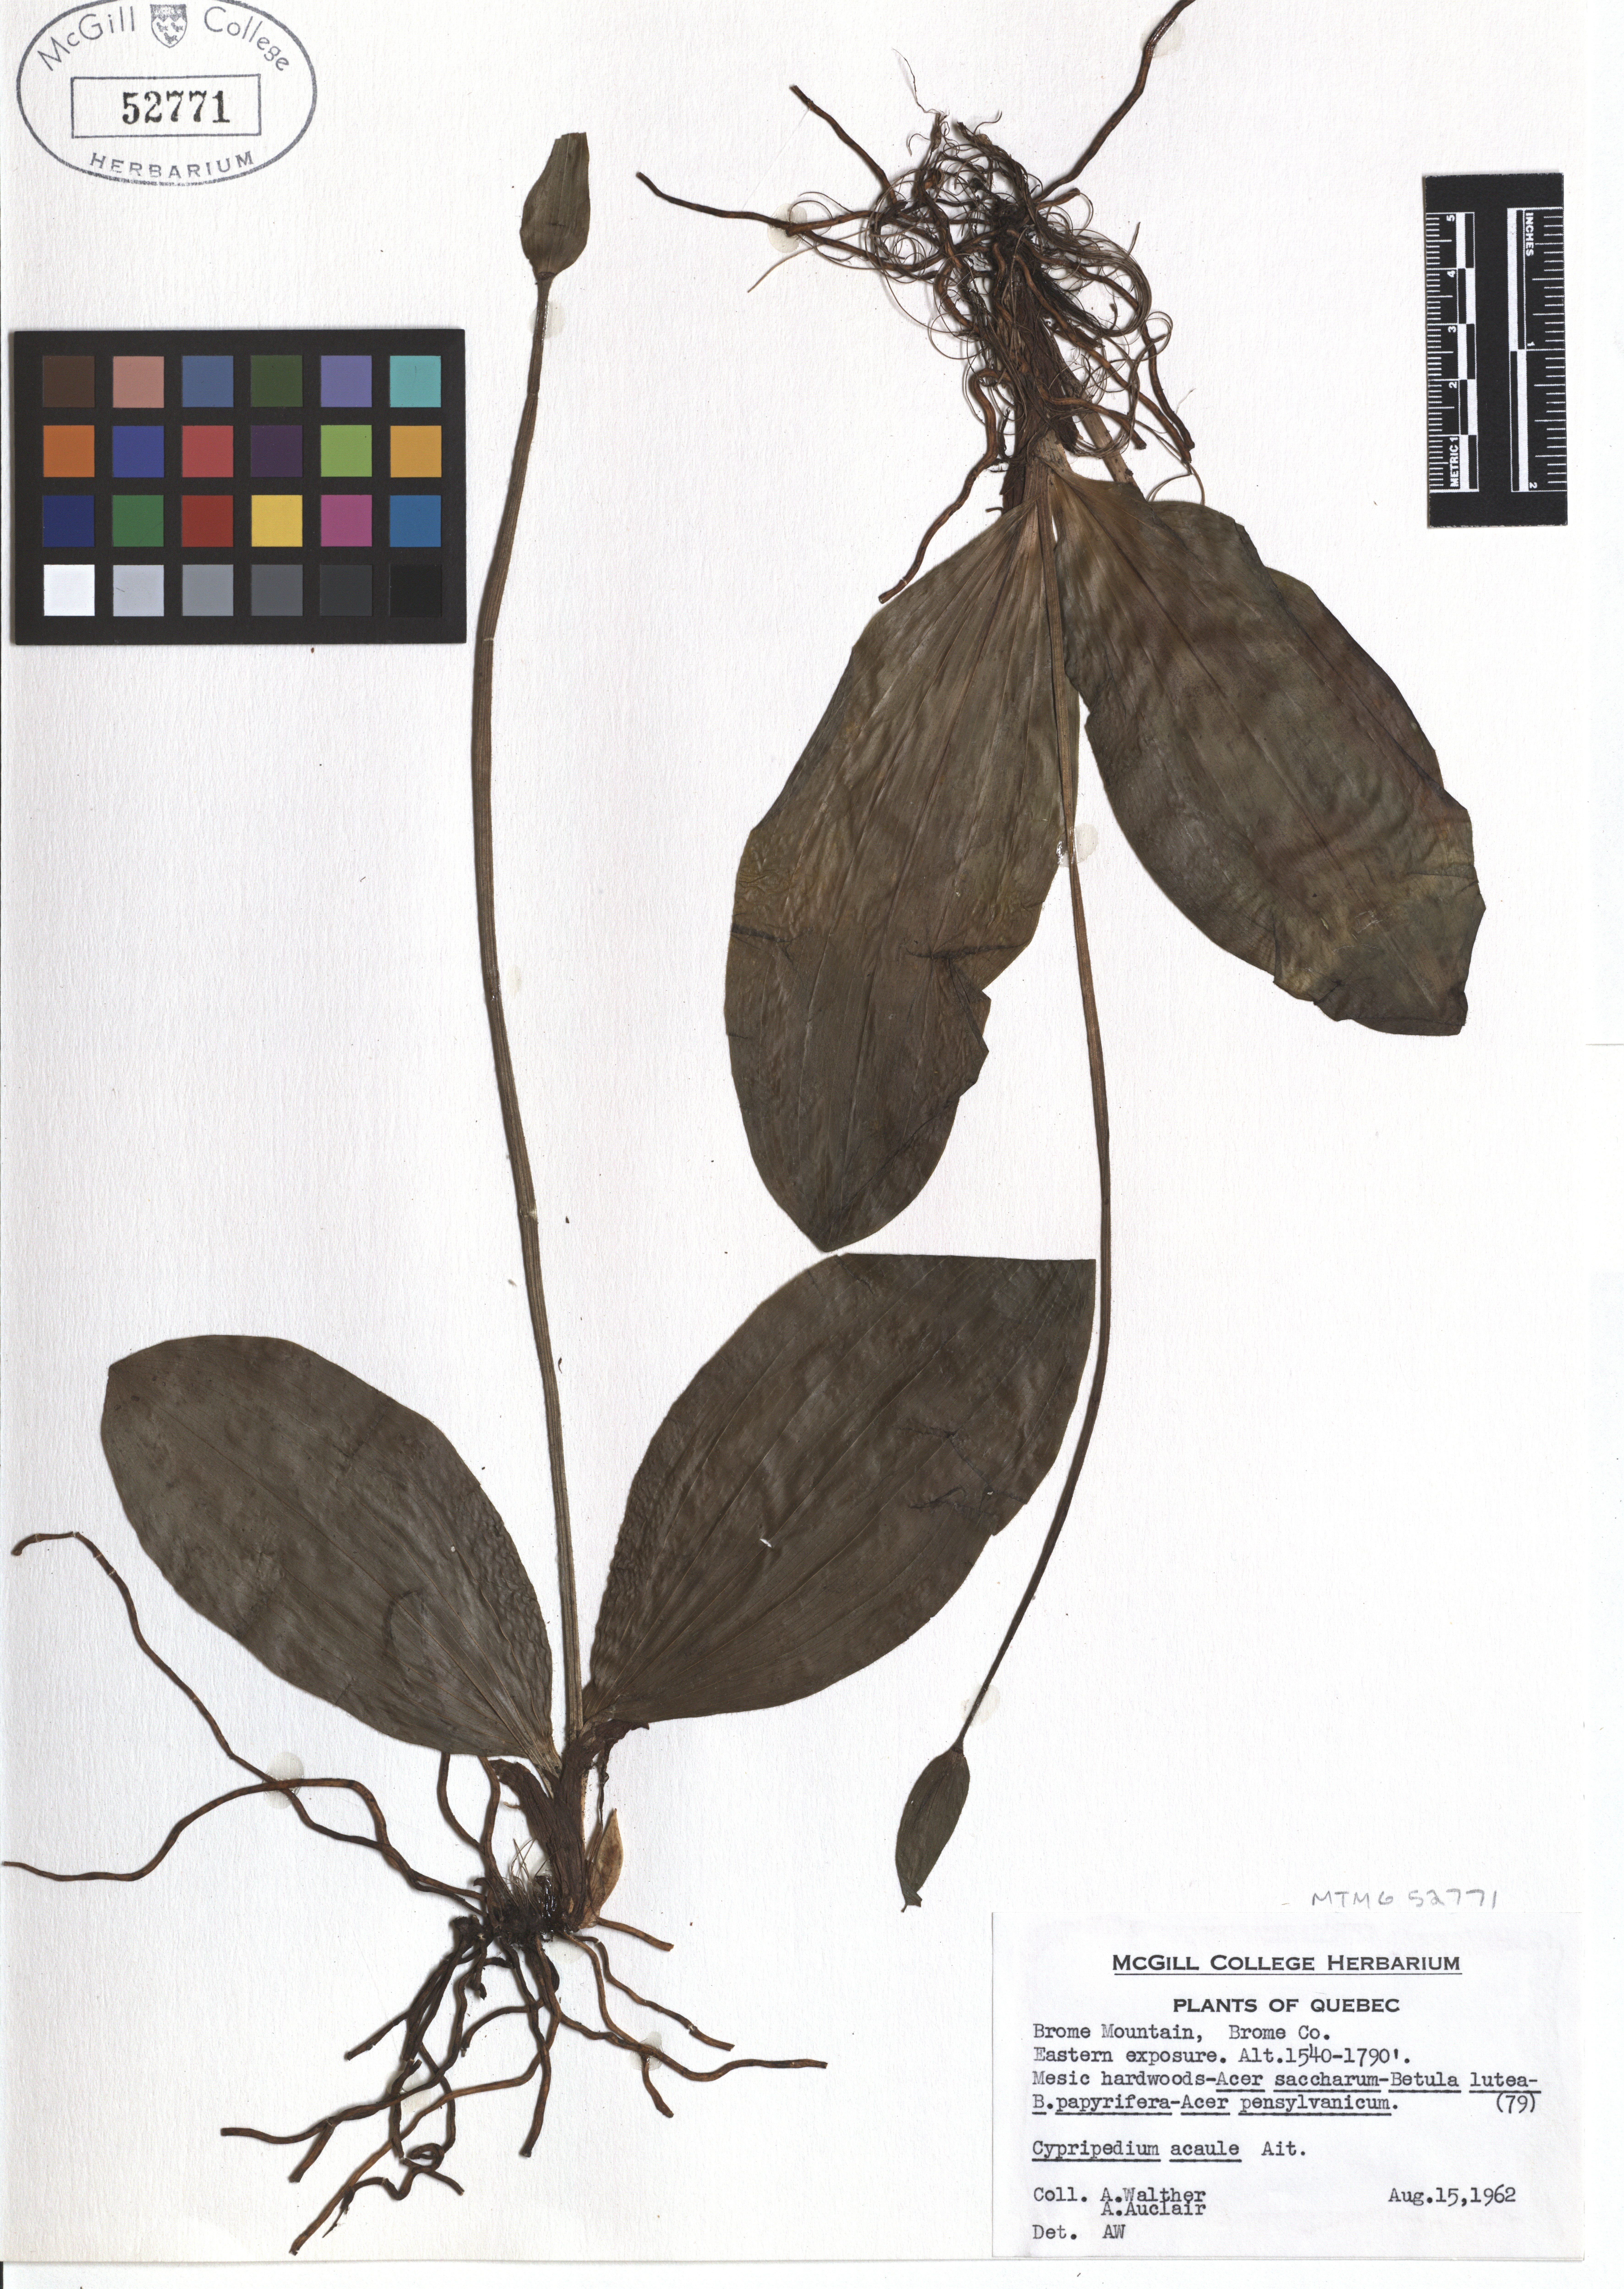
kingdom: Plantae
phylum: Tracheophyta
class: Liliopsida
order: Asparagales
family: Orchidaceae
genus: Cypripedium
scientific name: Cypripedium acaule
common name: Pink lady's-slipper
